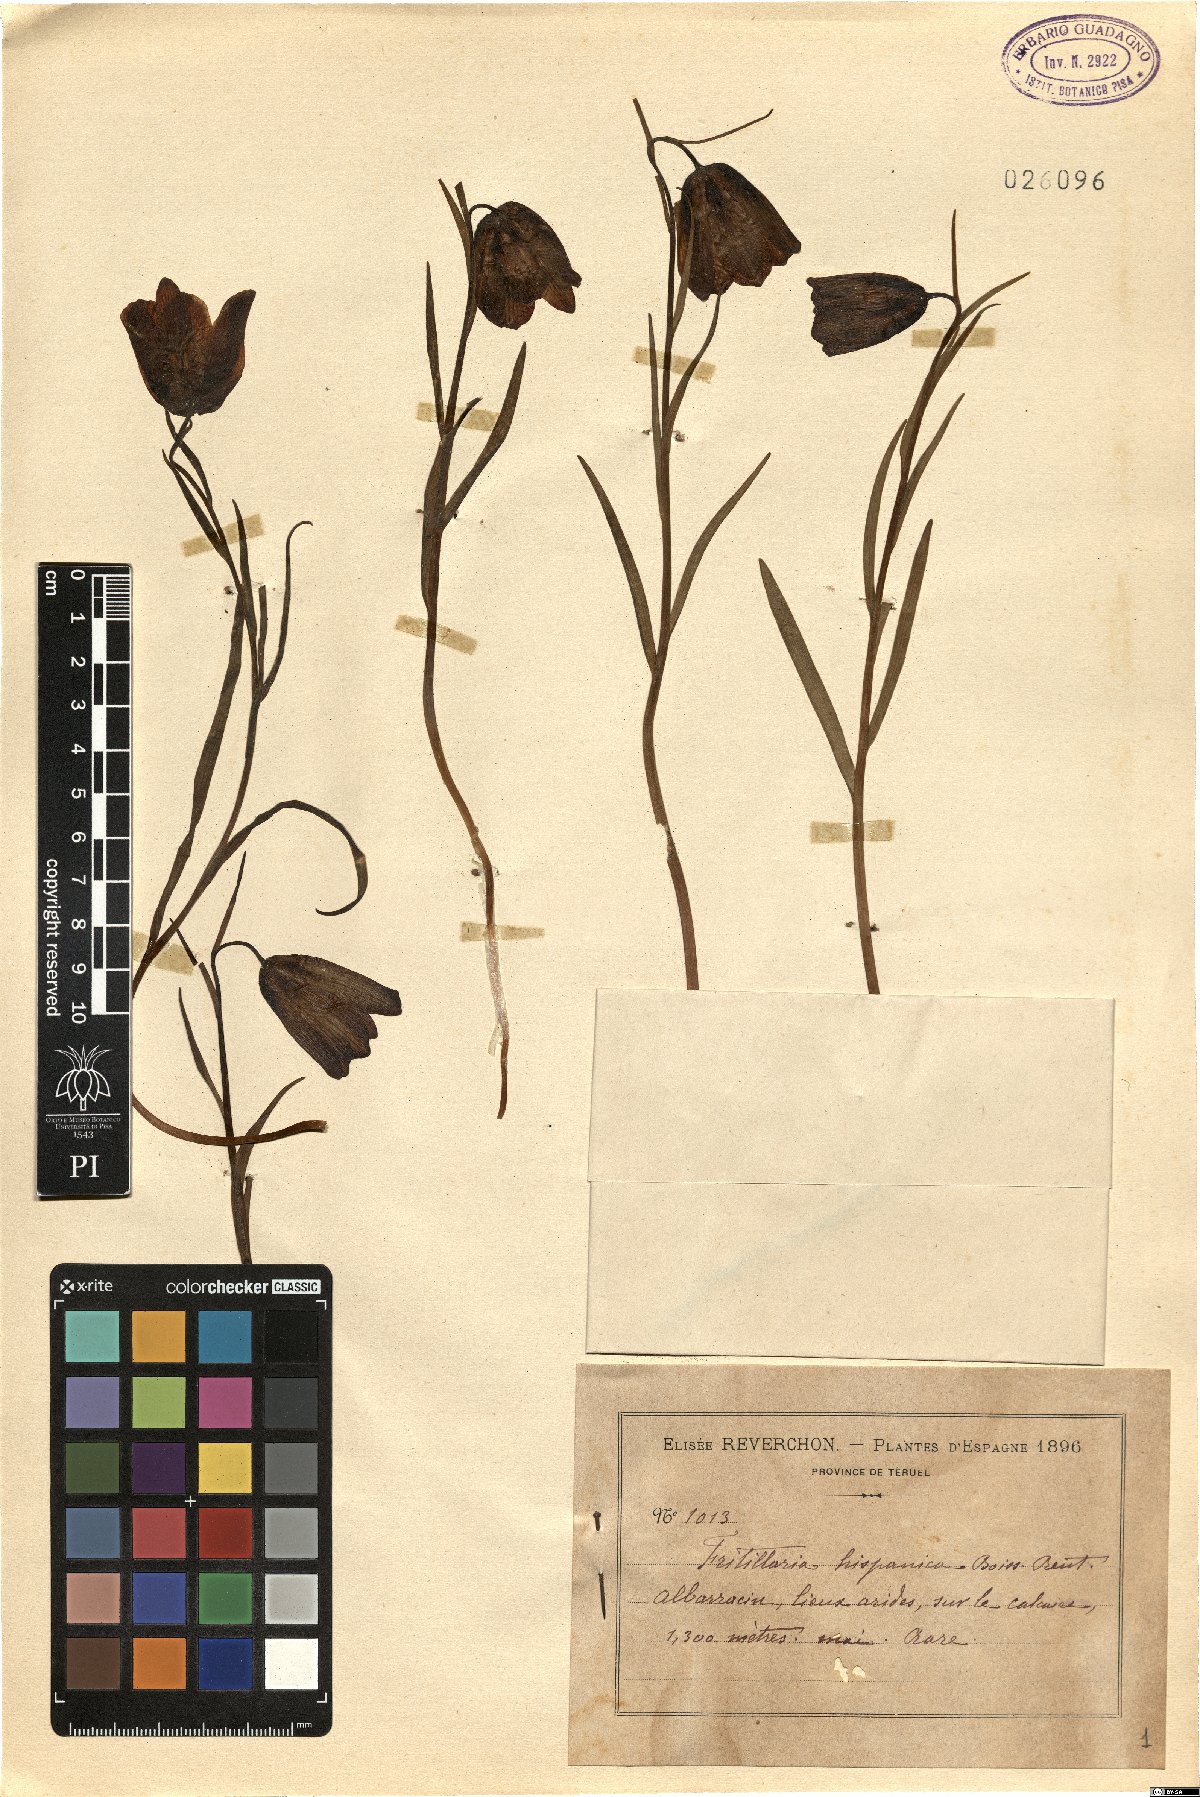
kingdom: Plantae
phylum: Tracheophyta
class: Liliopsida
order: Liliales
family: Liliaceae
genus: Fritillaria
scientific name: Fritillaria lusitanica
